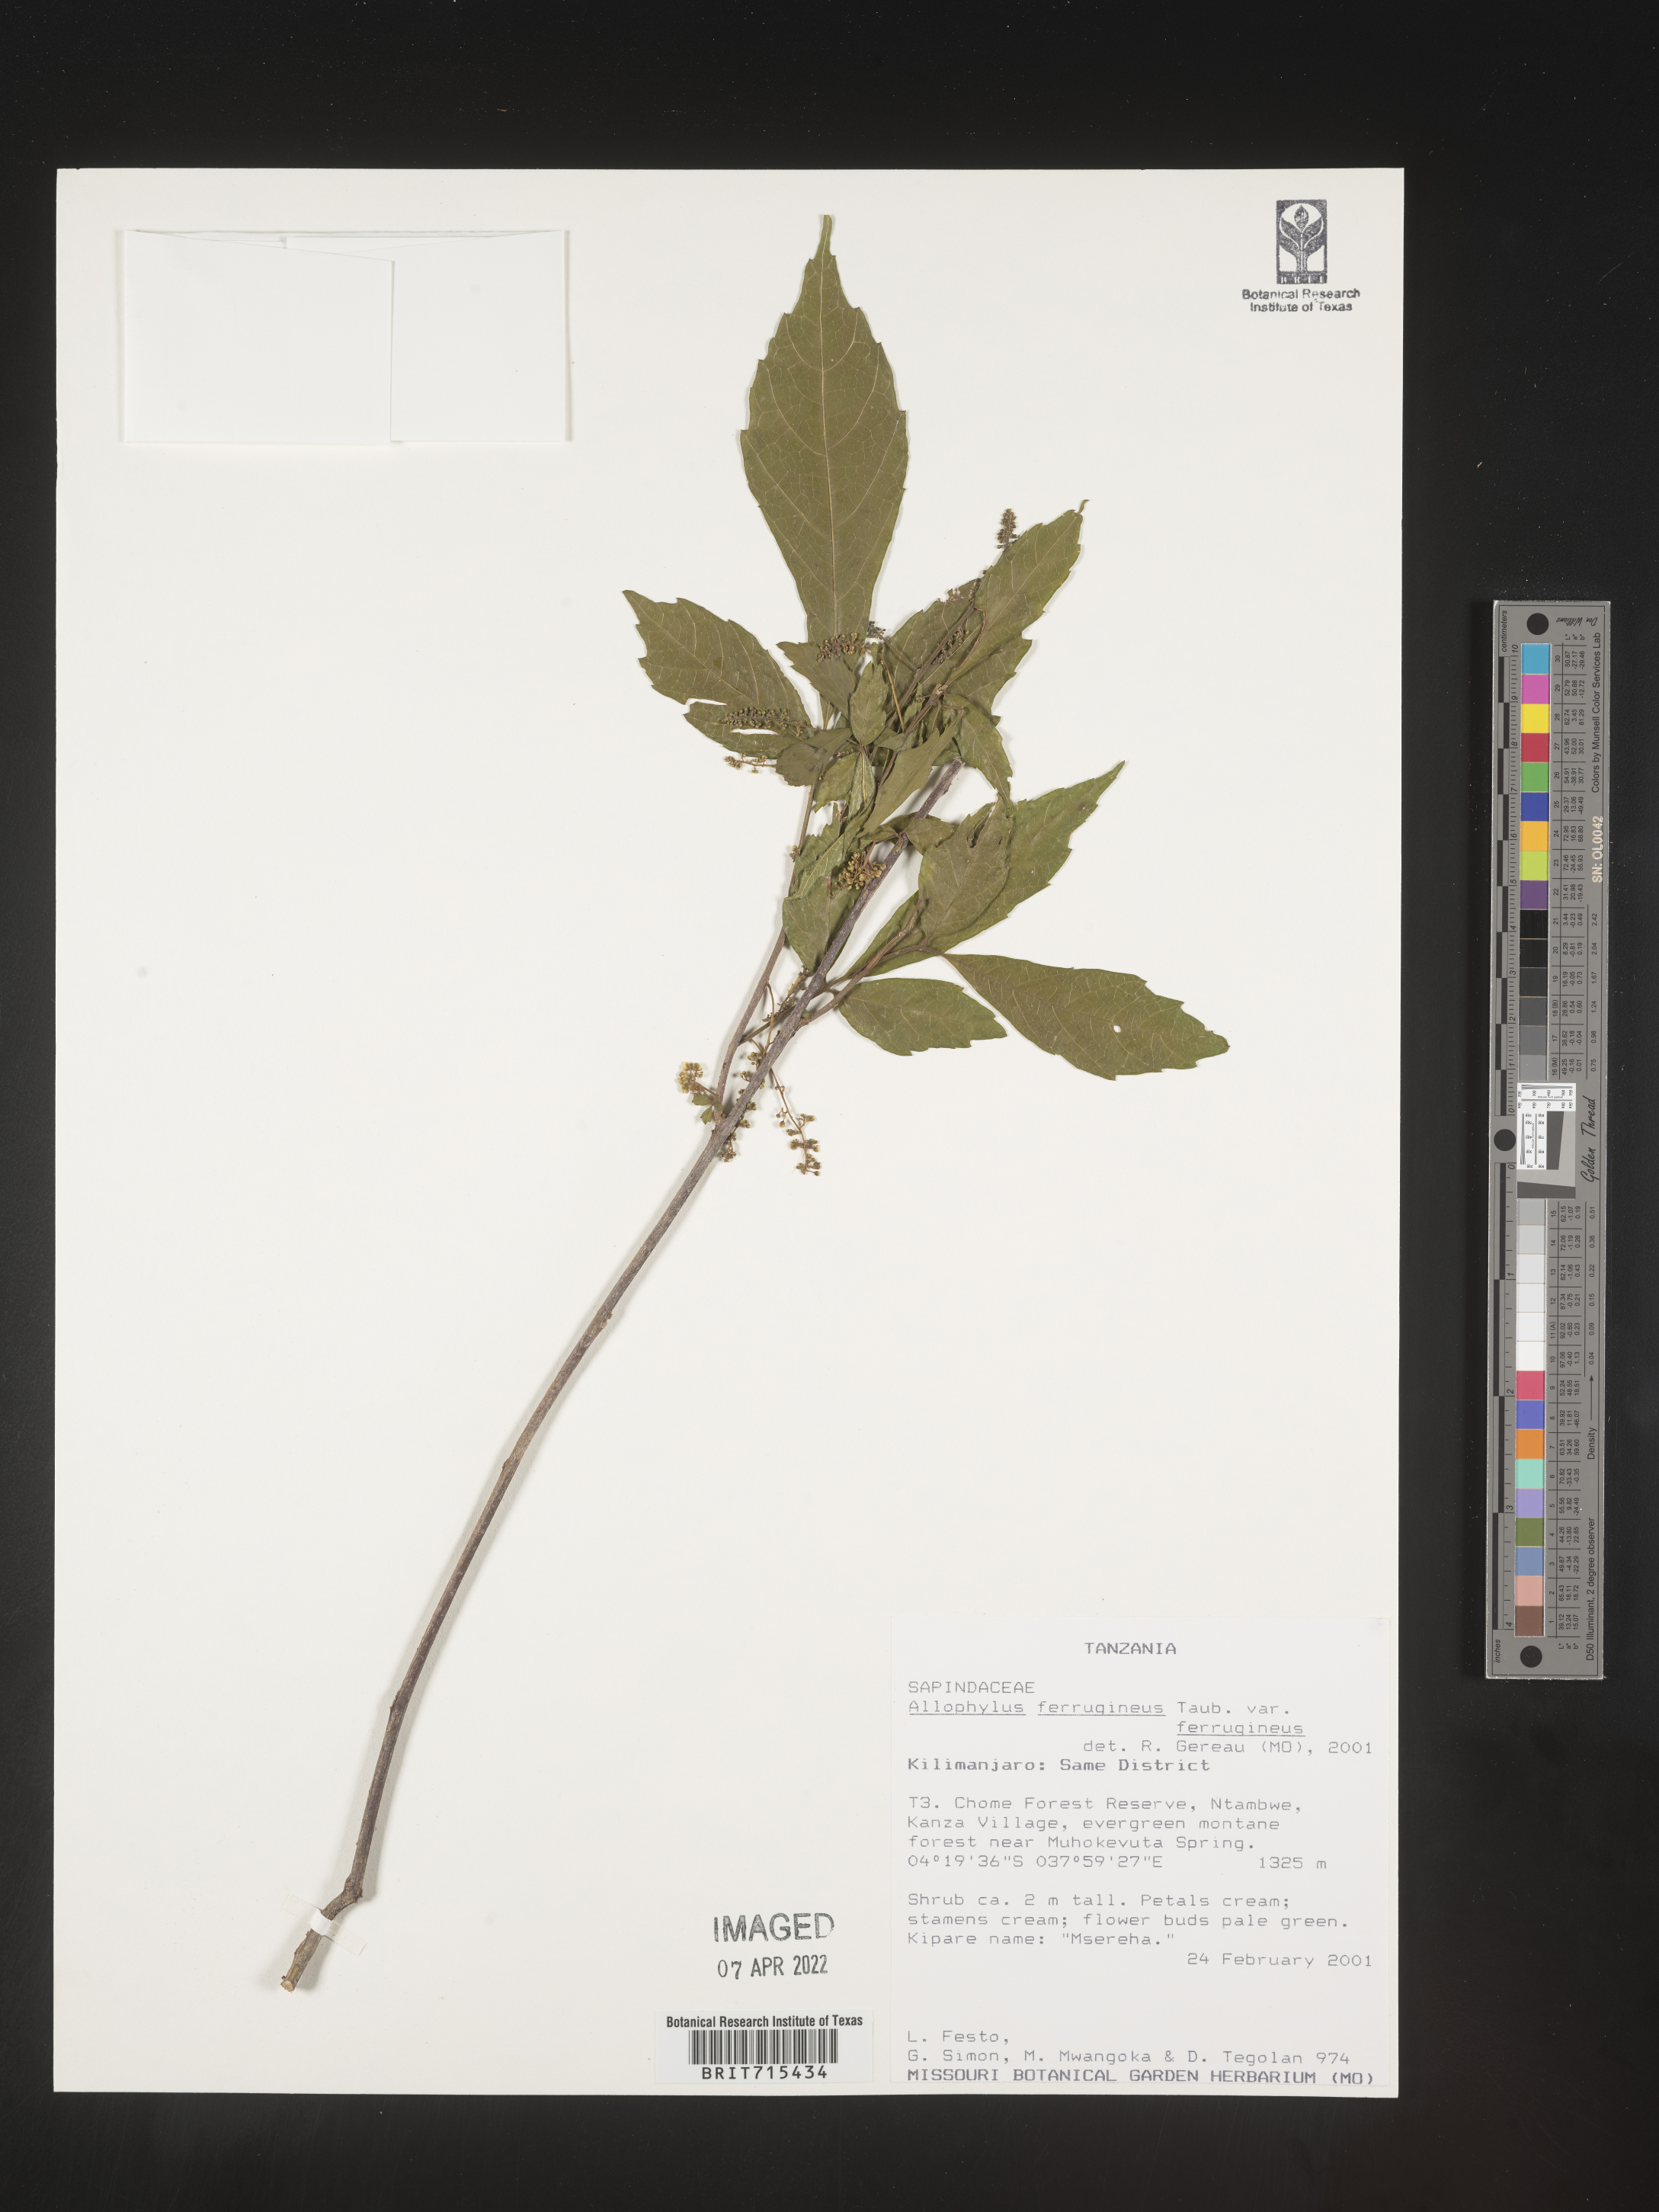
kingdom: Plantae
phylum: Tracheophyta
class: Magnoliopsida
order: Sapindales
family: Sapindaceae
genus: Allophylus
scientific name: Allophylus ferrugineus
